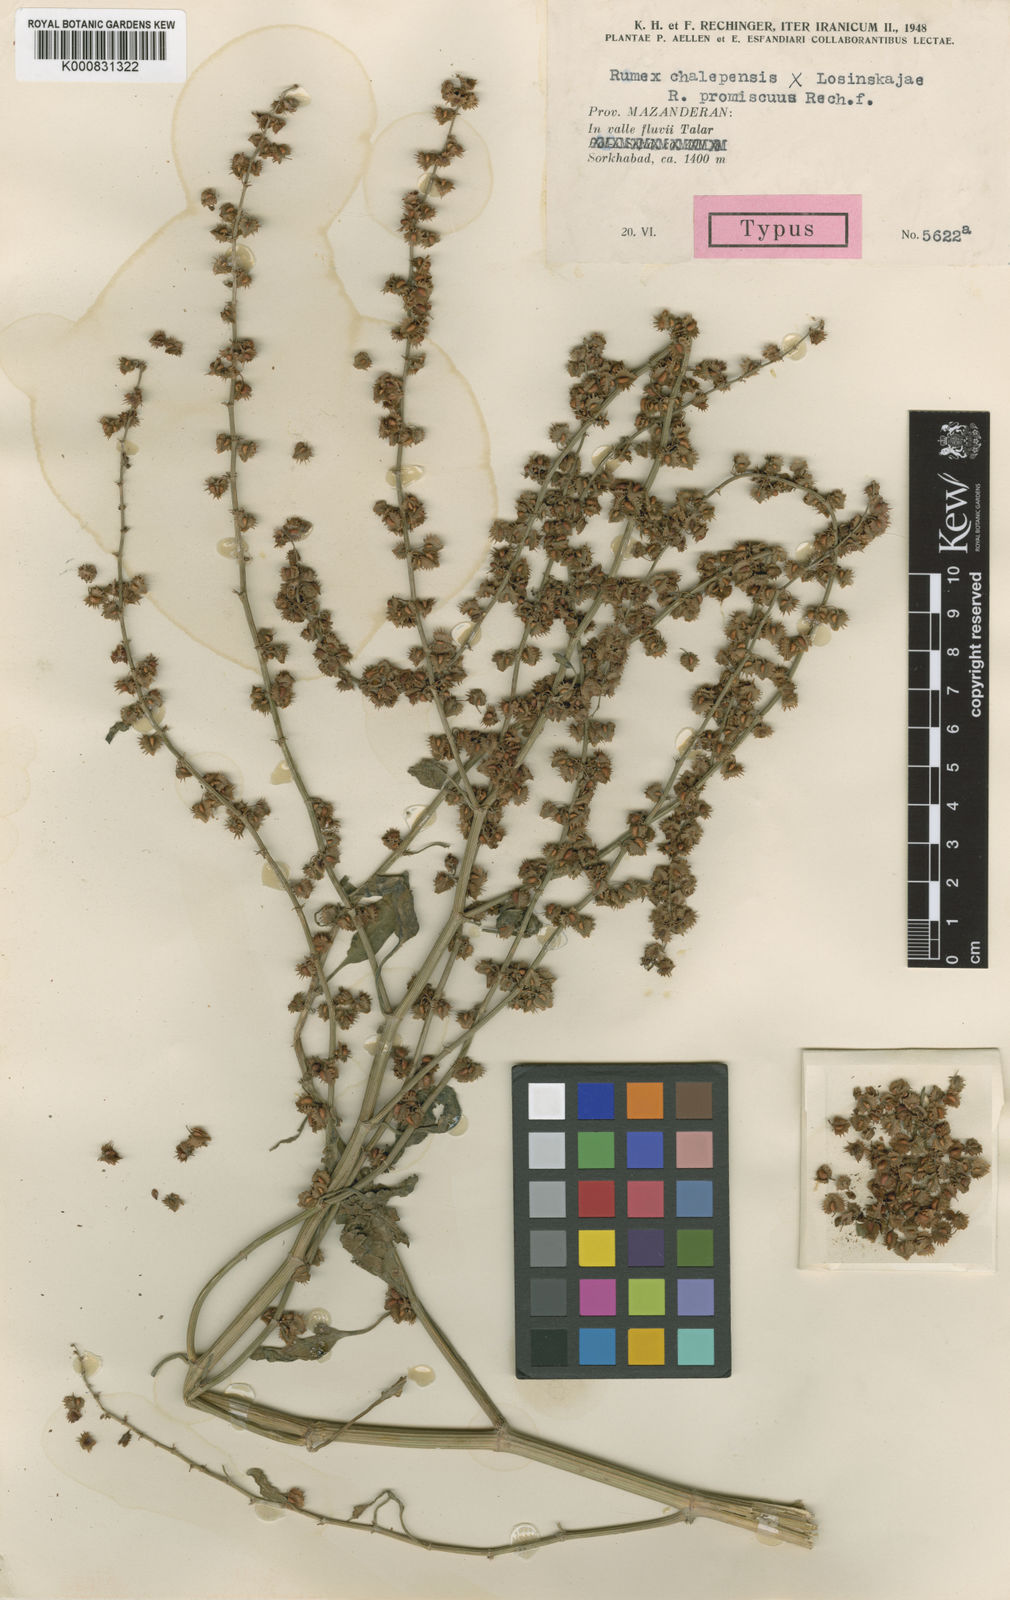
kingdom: Plantae
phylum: Tracheophyta
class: Magnoliopsida
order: Caryophyllales
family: Polygonaceae
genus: Rumex
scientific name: Rumex promiscuus
